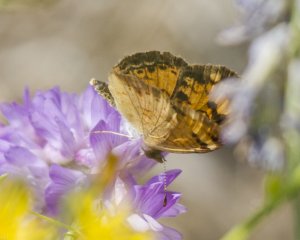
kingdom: Animalia
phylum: Arthropoda
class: Insecta
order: Lepidoptera
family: Nymphalidae
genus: Phyciodes
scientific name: Phyciodes tharos
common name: Northern Crescent
